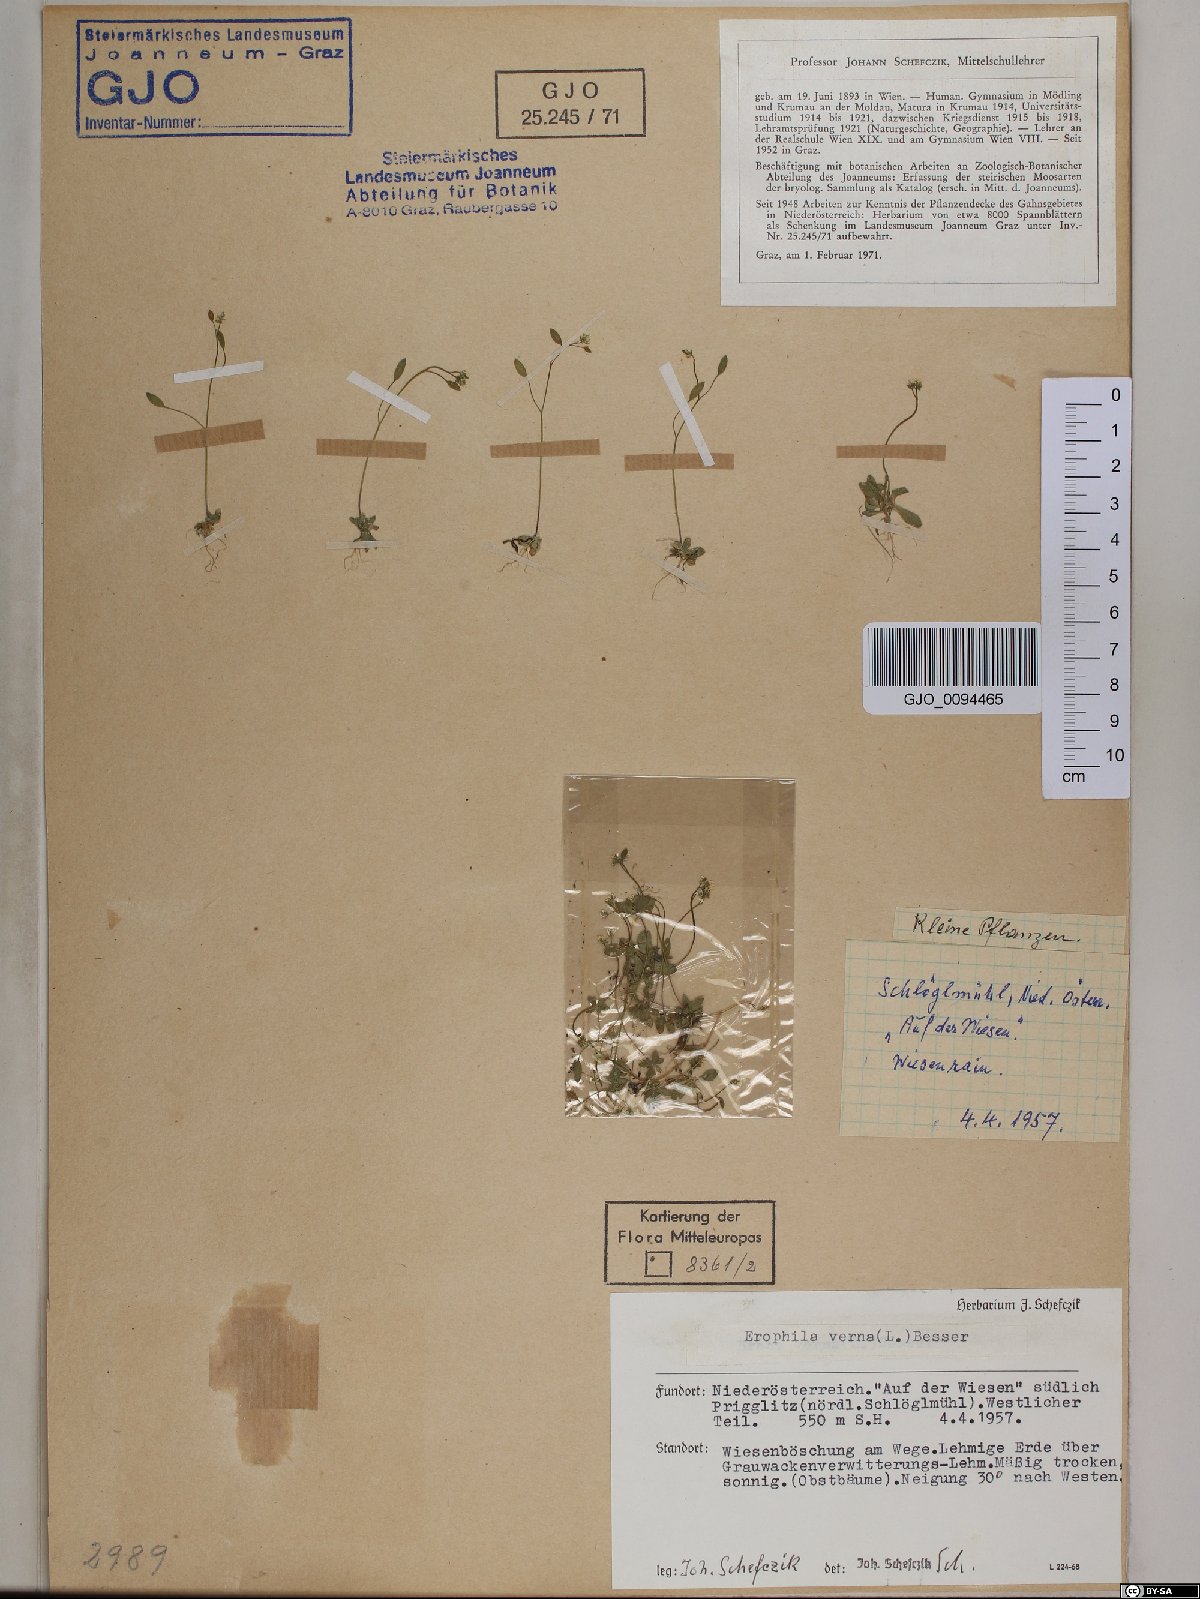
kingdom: Plantae
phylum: Tracheophyta
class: Magnoliopsida
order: Brassicales
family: Brassicaceae
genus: Draba
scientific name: Draba verna
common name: Spring draba
